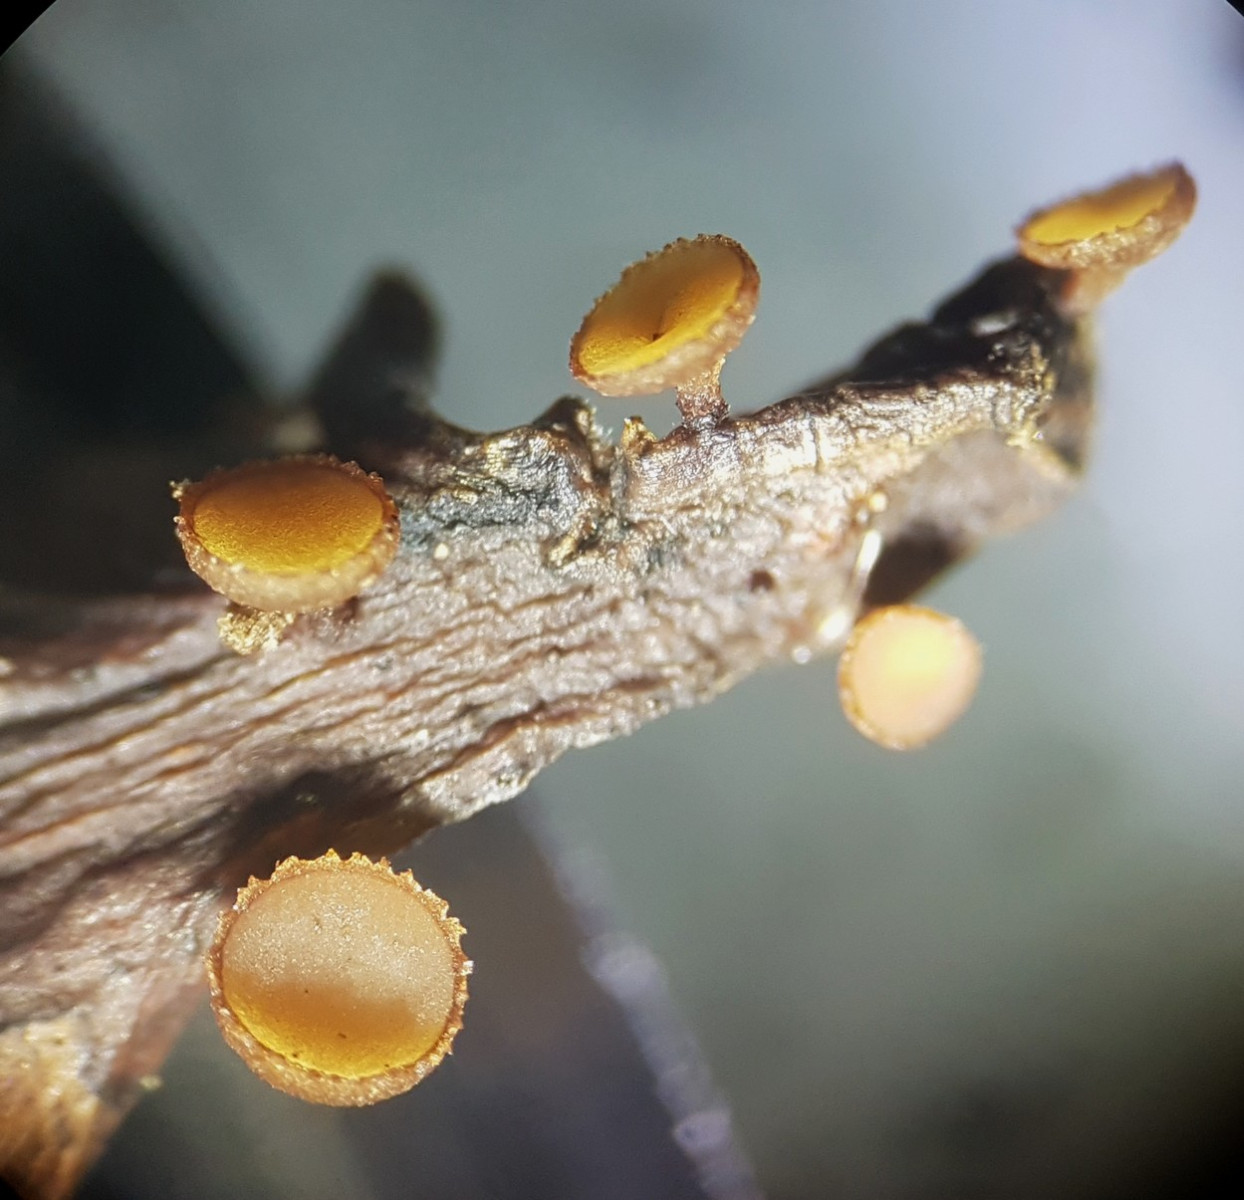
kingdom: Fungi
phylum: Ascomycota
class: Leotiomycetes
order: Helotiales
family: Rutstroemiaceae
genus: Rutstroemia
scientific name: Rutstroemia sydowiana
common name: egeblads-brunskive
